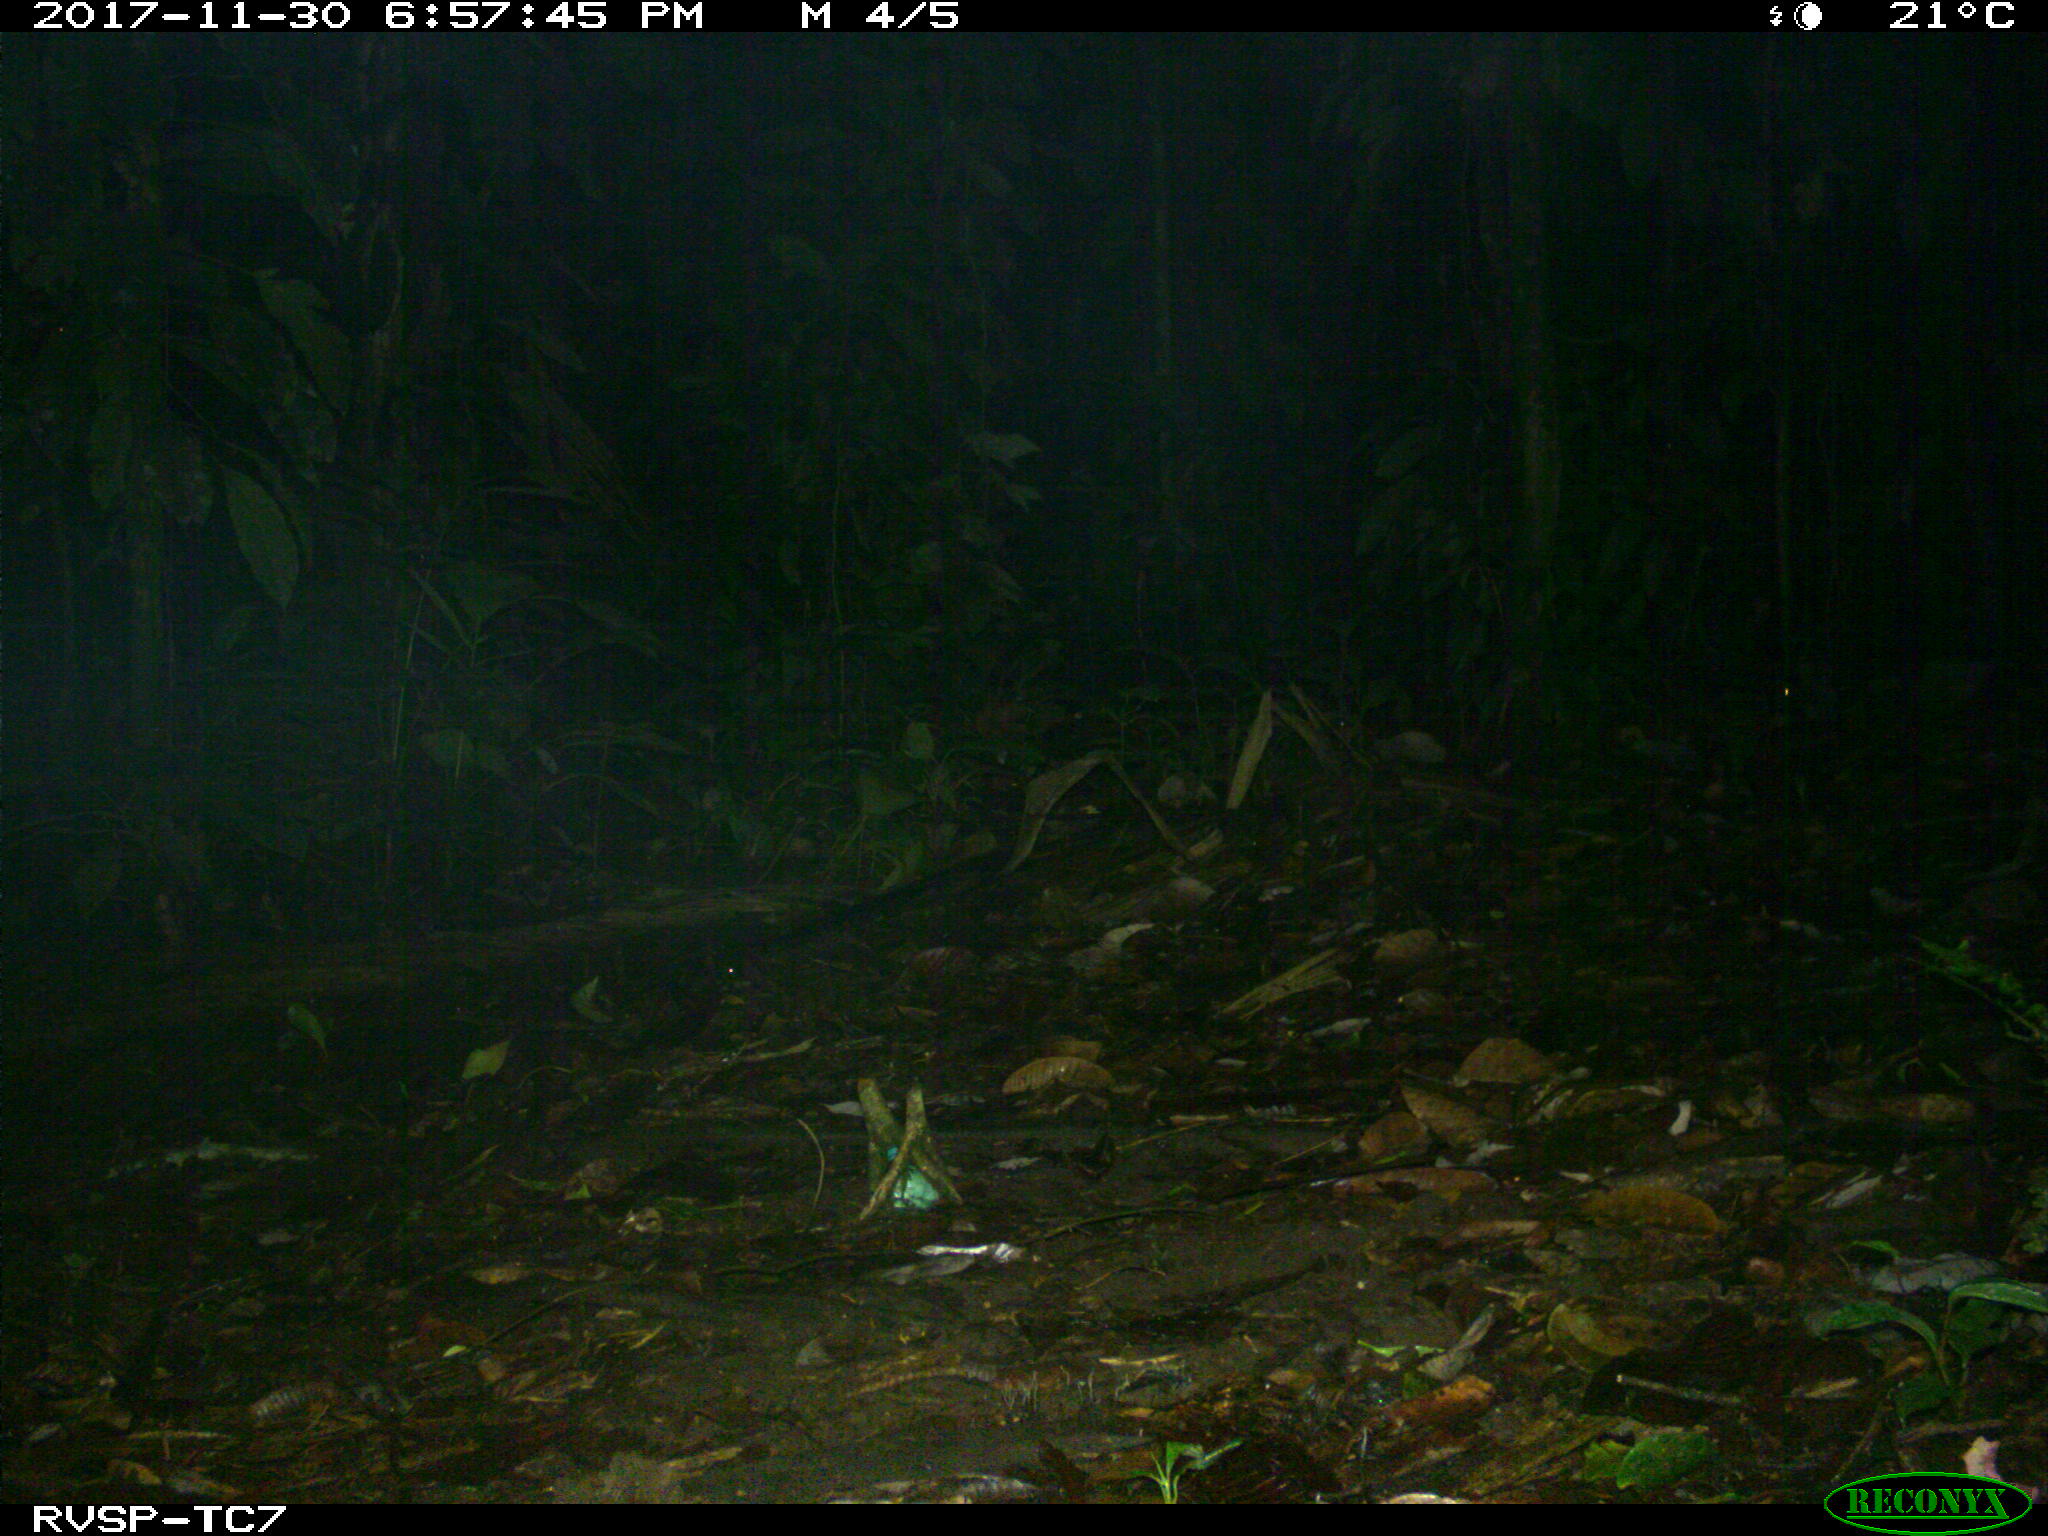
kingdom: Animalia
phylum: Chordata
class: Mammalia
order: Carnivora
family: Felidae
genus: Leopardus
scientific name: Leopardus pardalis
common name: Ocelot
